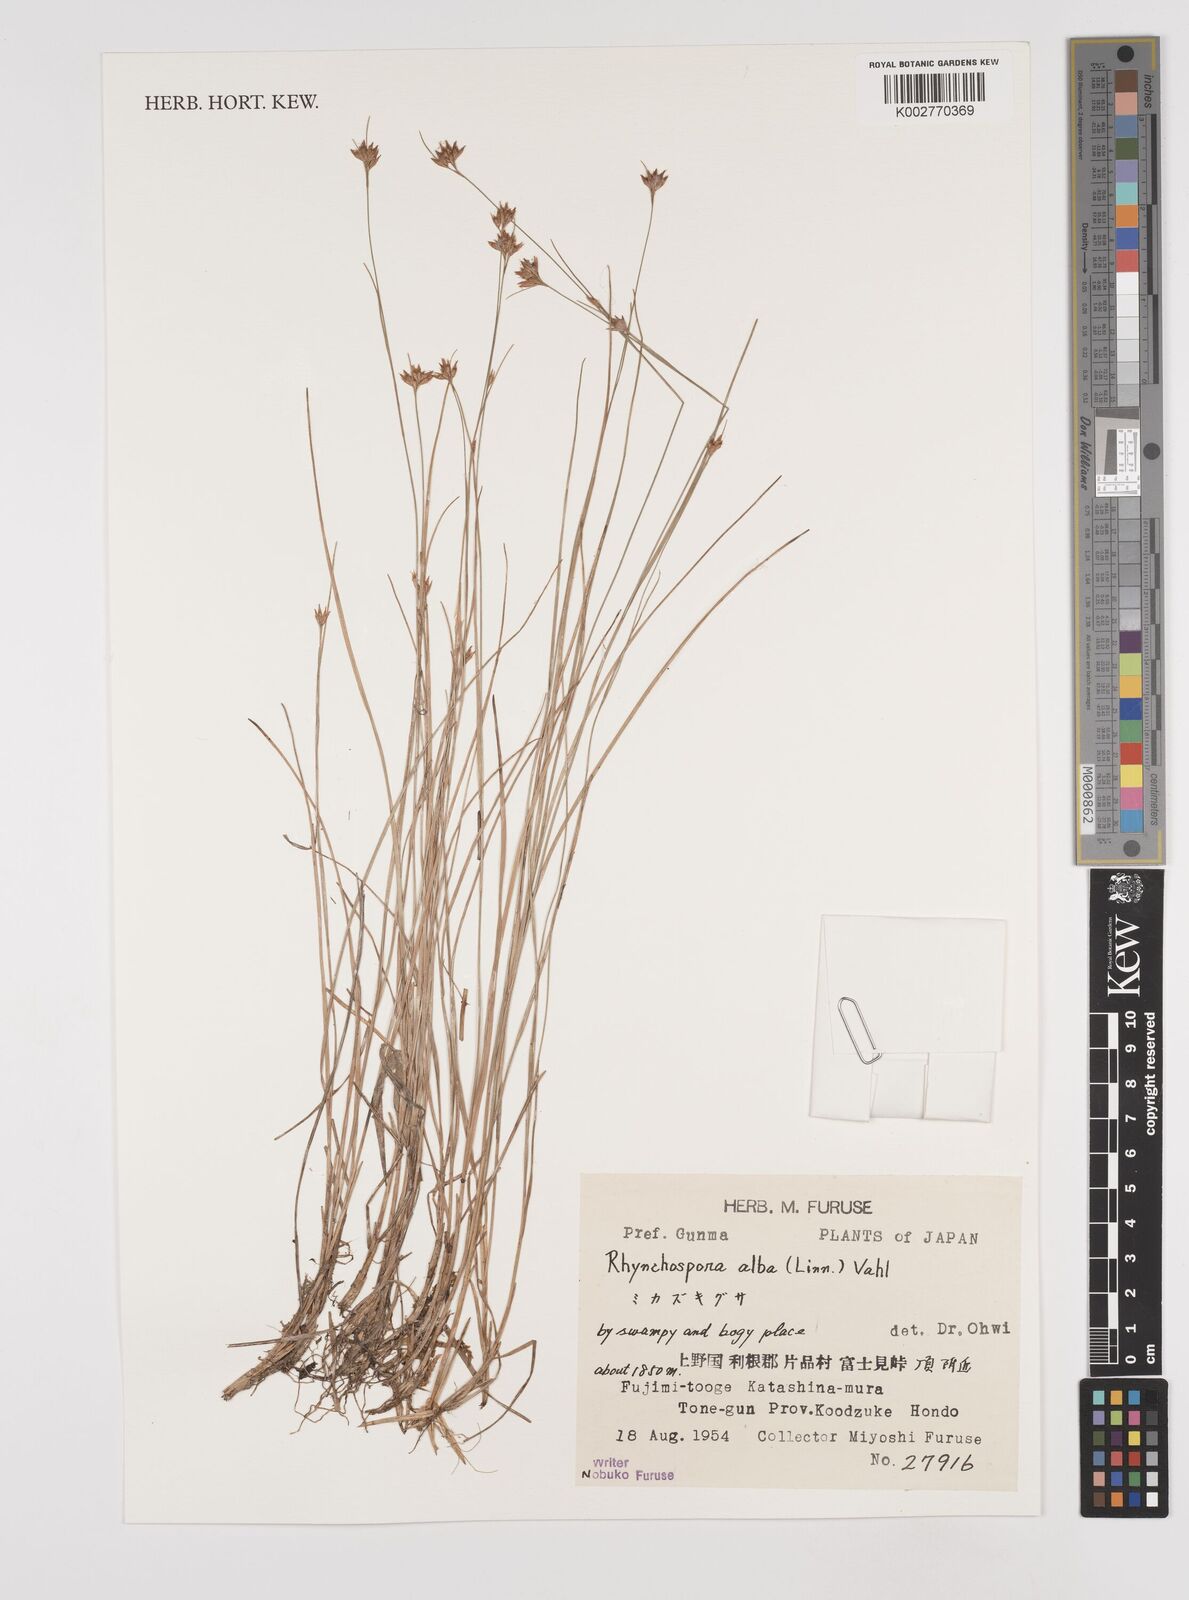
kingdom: Plantae
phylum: Tracheophyta
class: Liliopsida
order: Poales
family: Cyperaceae
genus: Rhynchospora
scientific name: Rhynchospora alba
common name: White beak-sedge
